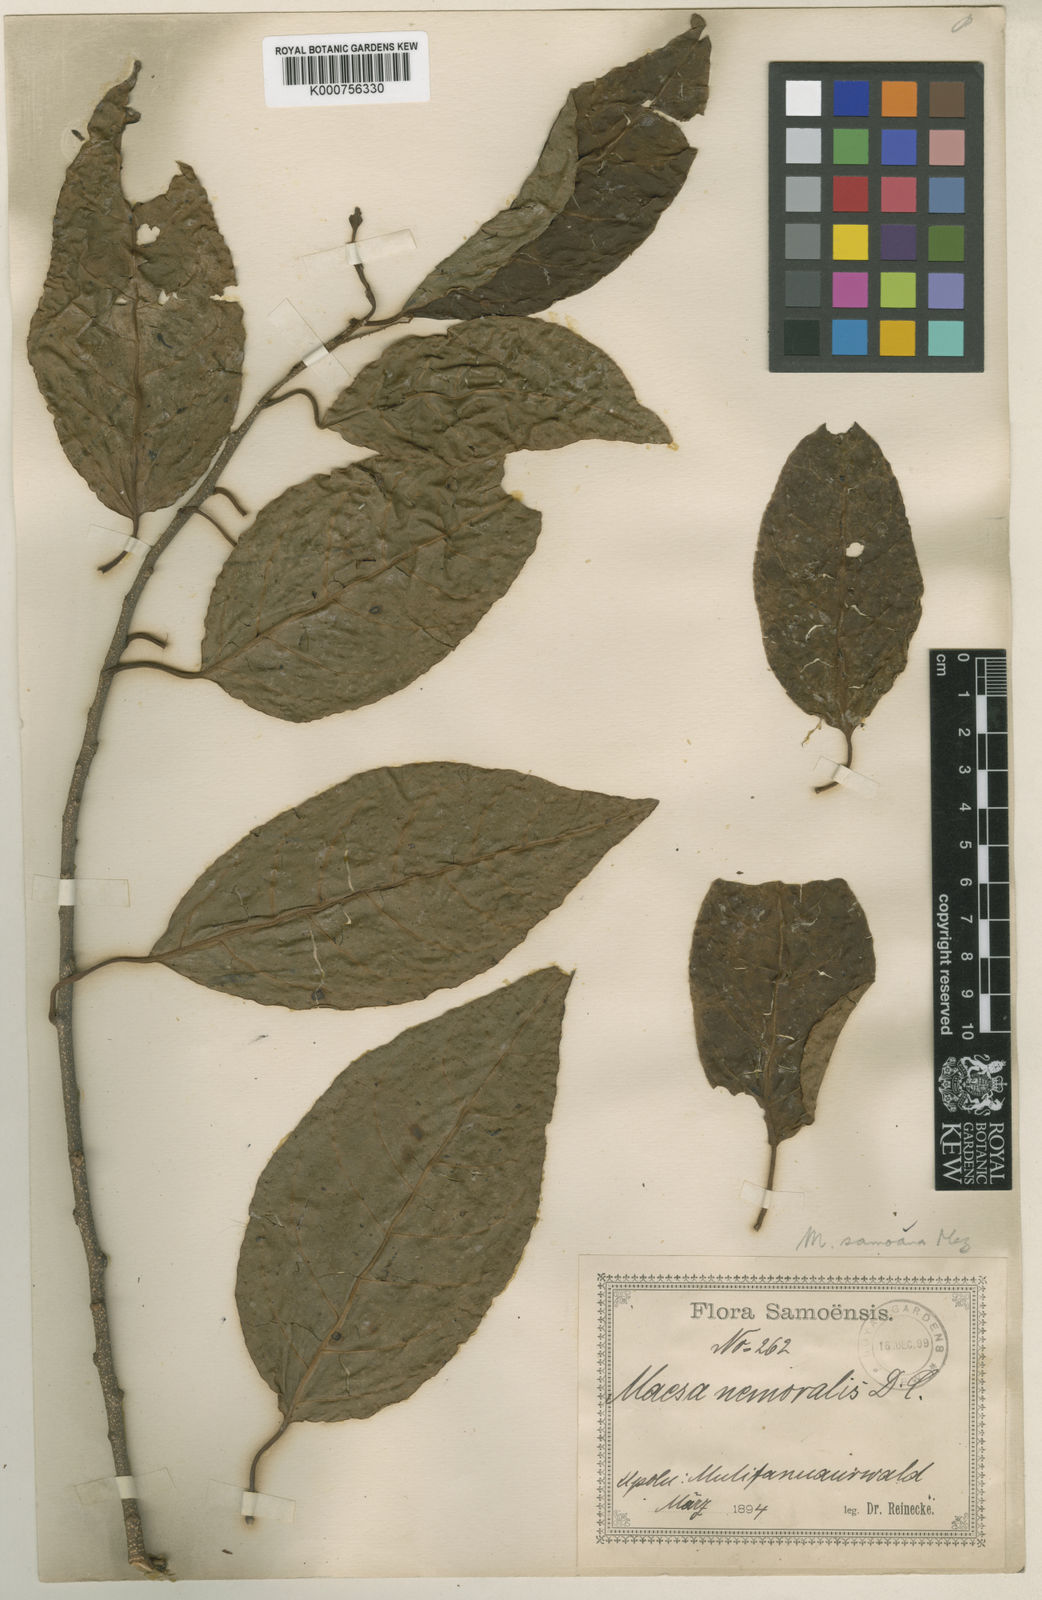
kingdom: Plantae
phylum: Tracheophyta
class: Magnoliopsida
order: Ericales
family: Primulaceae
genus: Maesa
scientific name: Maesa samoana
